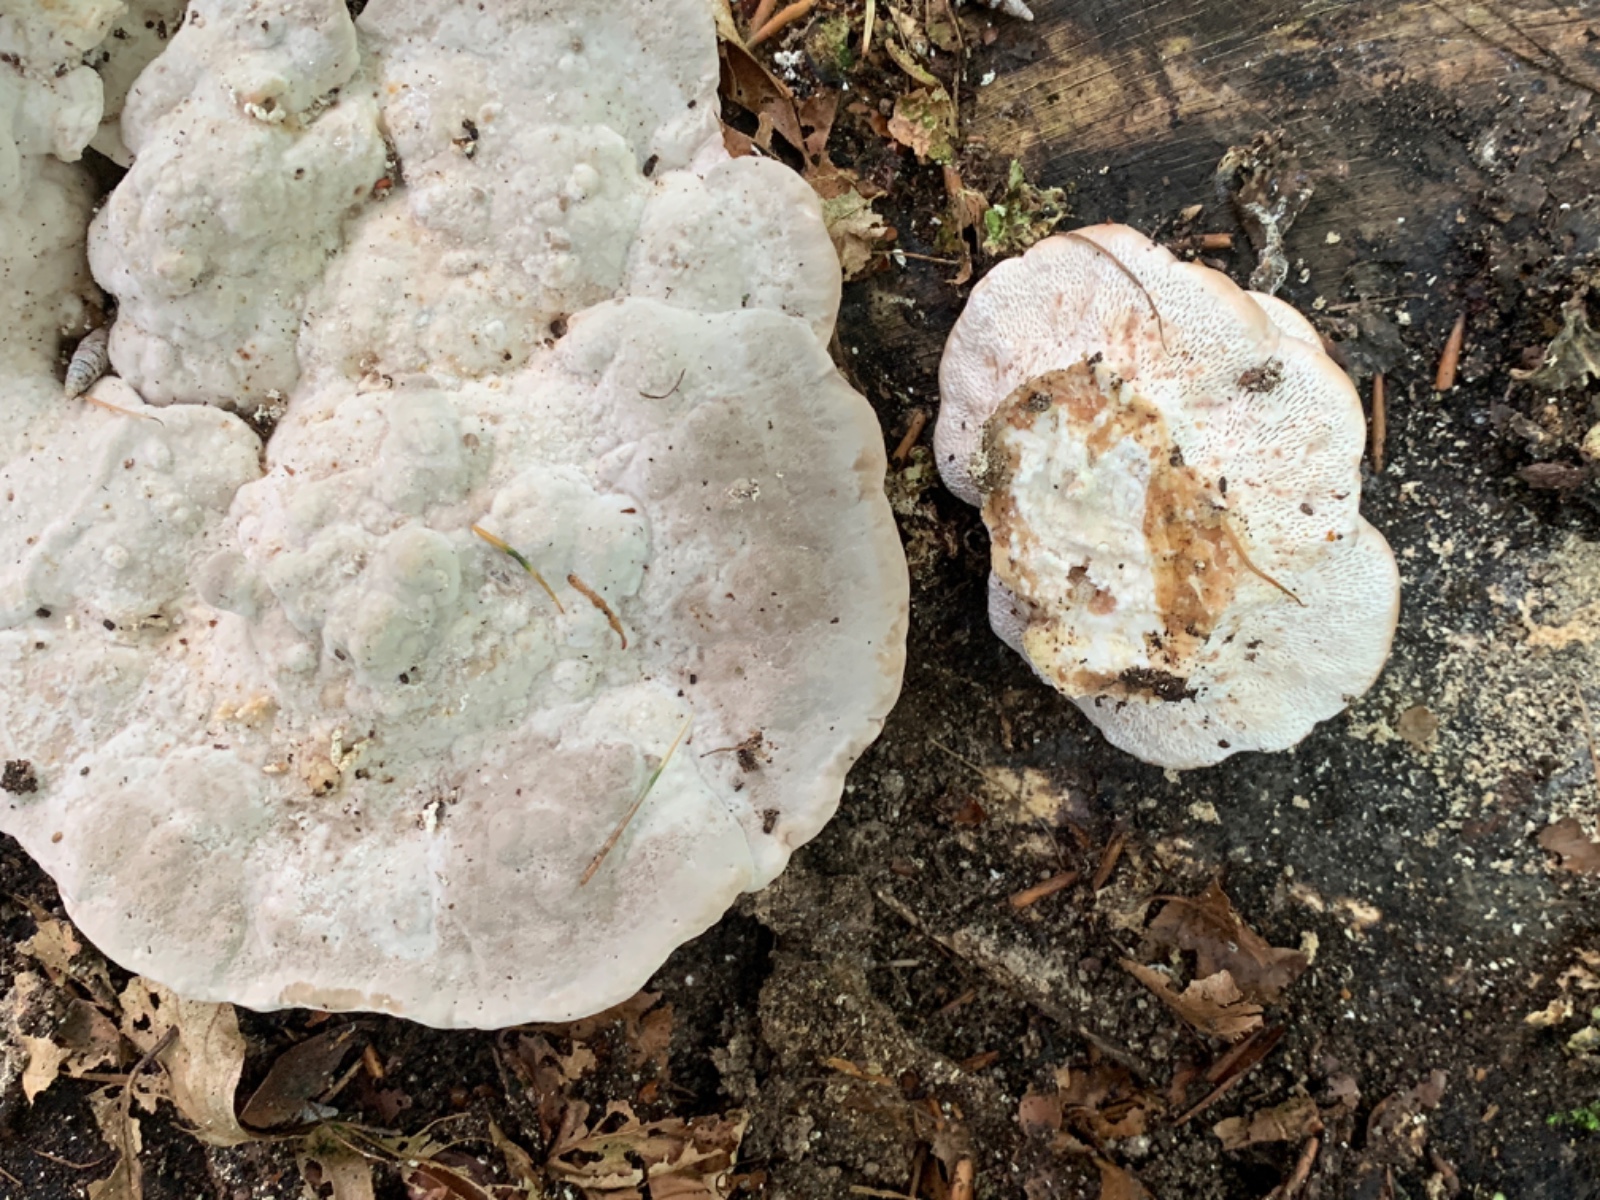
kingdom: Fungi
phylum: Basidiomycota
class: Agaricomycetes
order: Polyporales
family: Polyporaceae
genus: Trametes
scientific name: Trametes gibbosa
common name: puklet læderporesvamp
